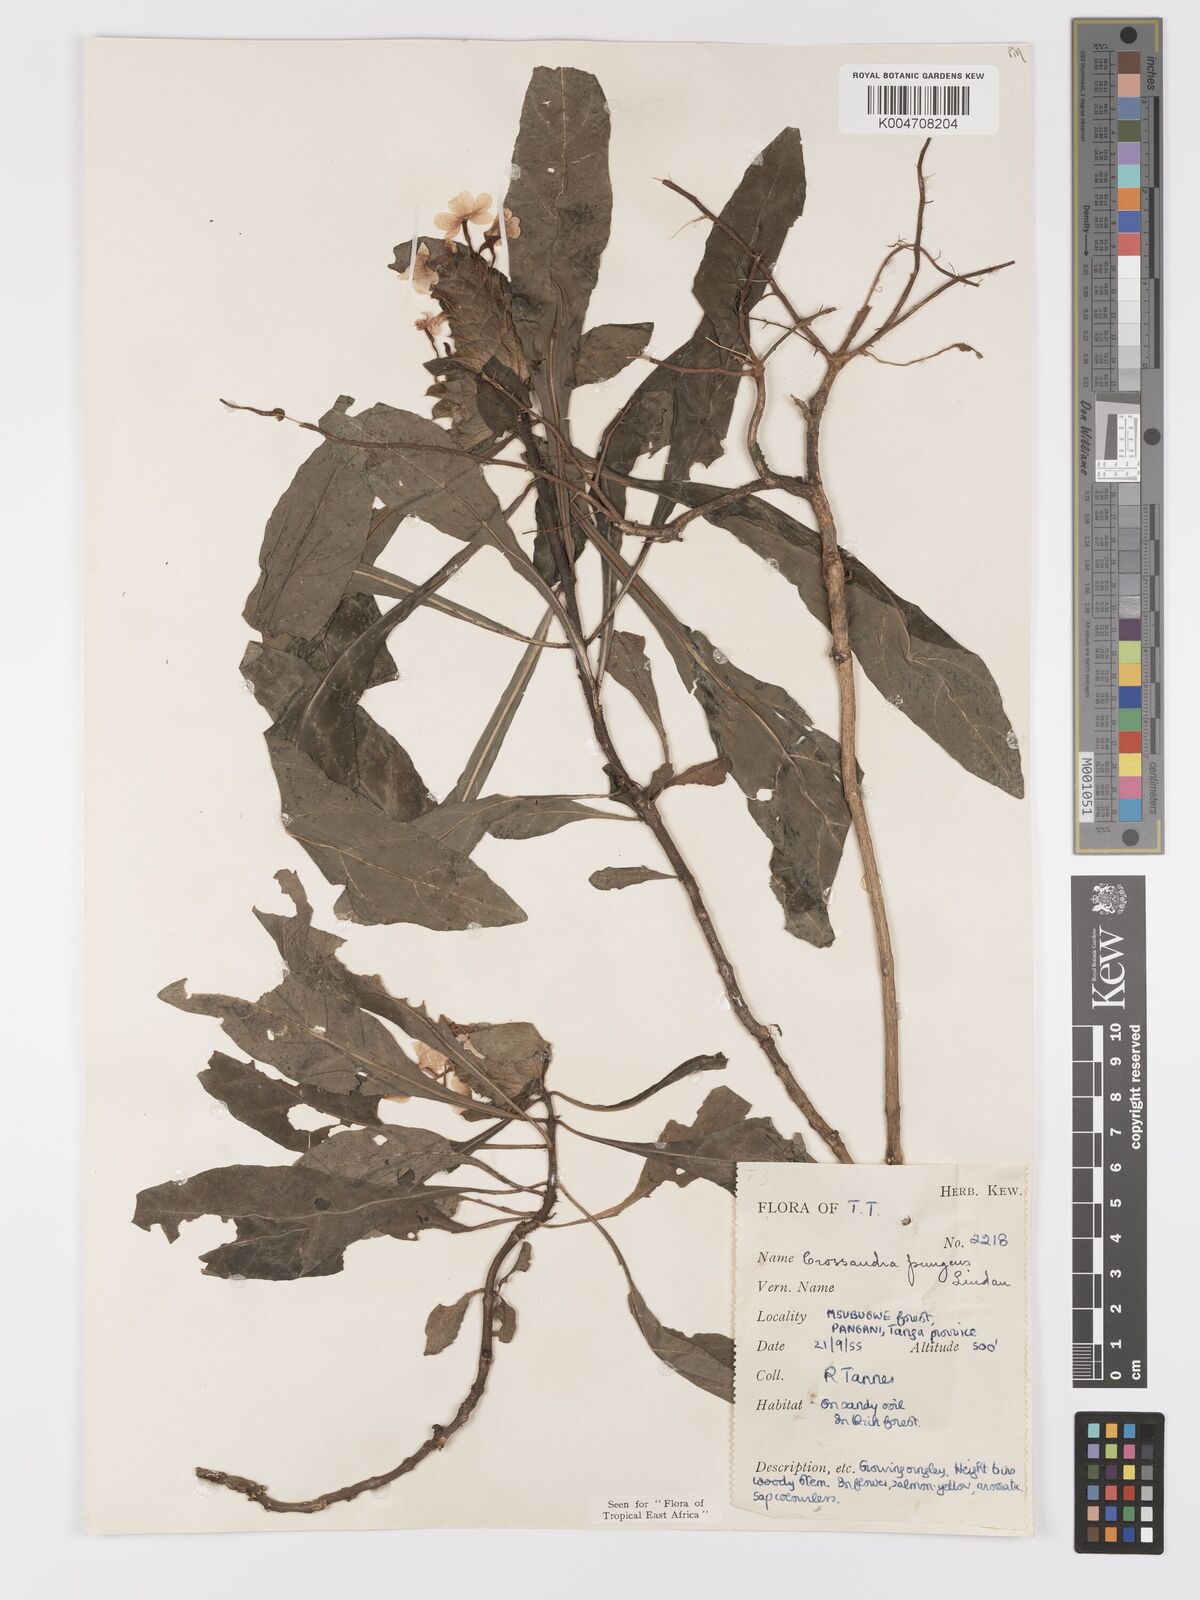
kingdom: Plantae
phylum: Tracheophyta
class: Magnoliopsida
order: Lamiales
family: Acanthaceae
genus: Crossandra
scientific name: Crossandra pungens
